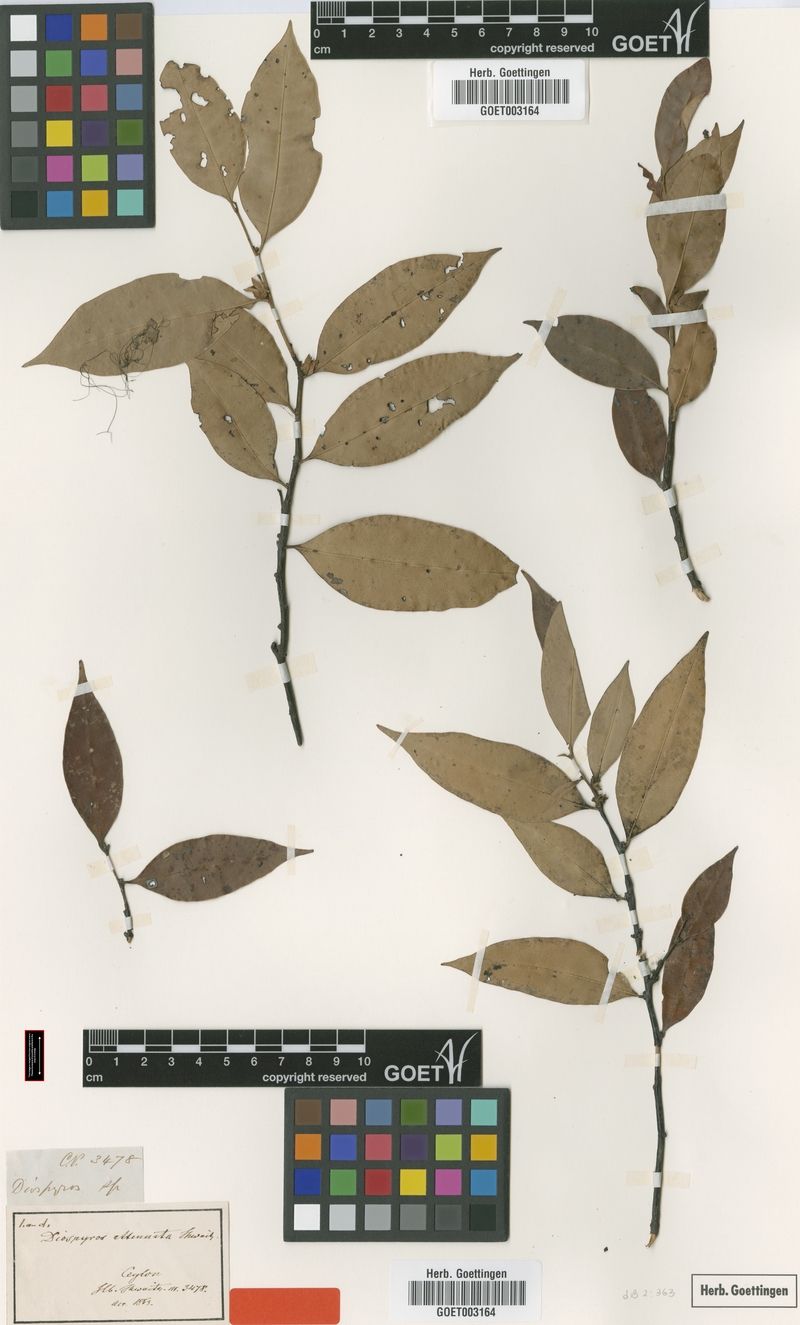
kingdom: Plantae
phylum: Tracheophyta
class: Magnoliopsida
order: Ericales
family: Ebenaceae
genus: Diospyros
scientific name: Diospyros attenuata
